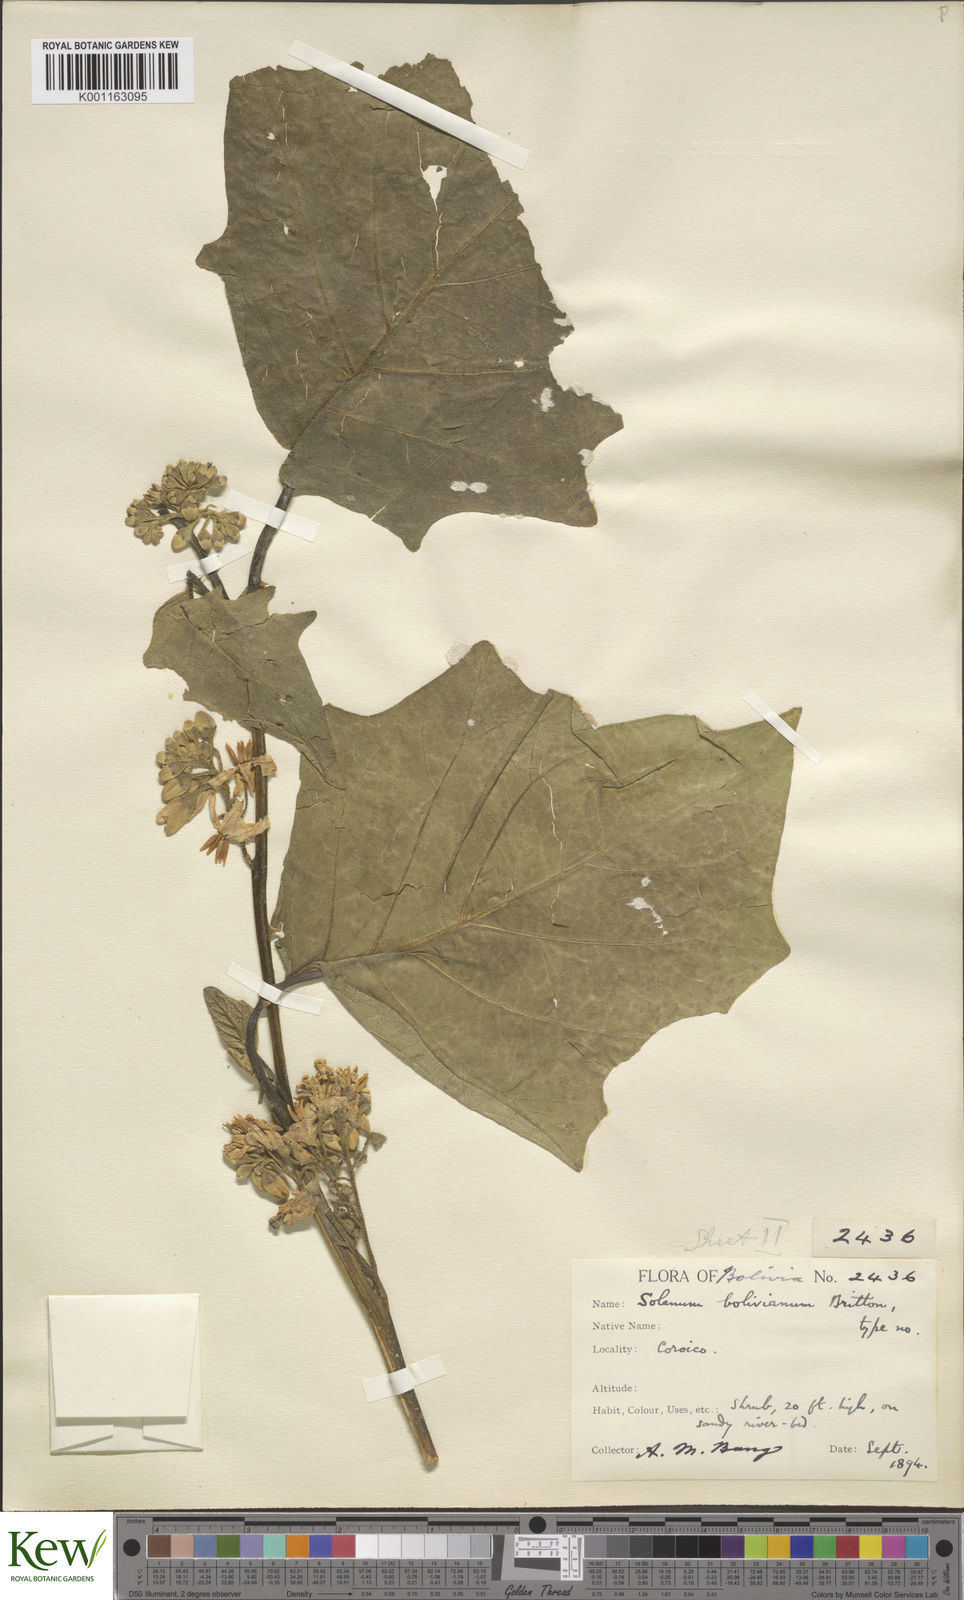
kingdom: Plantae
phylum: Tracheophyta
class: Magnoliopsida
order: Solanales
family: Solanaceae
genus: Solanum
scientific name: Solanum bolivianum
